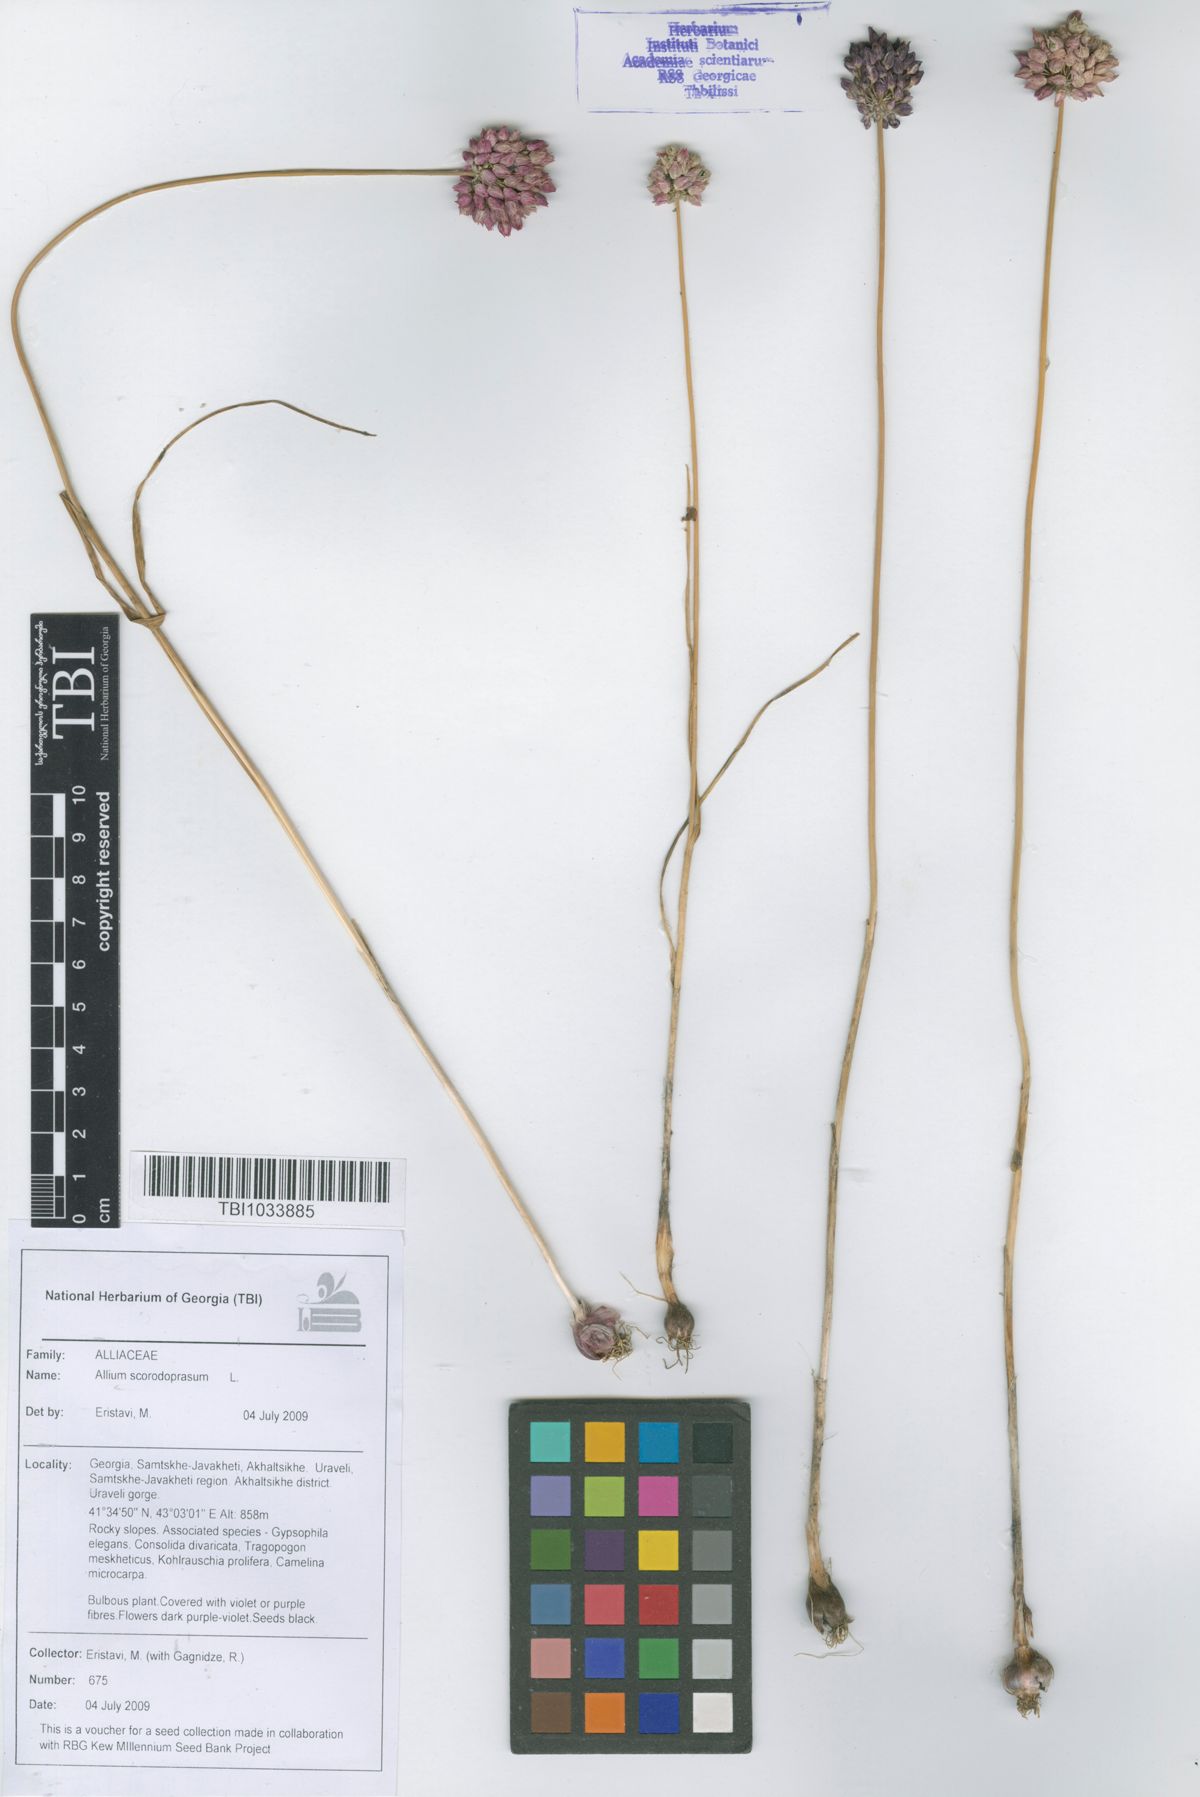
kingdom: Plantae
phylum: Tracheophyta
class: Liliopsida
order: Asparagales
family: Amaryllidaceae
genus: Allium
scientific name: Allium rotundum
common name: Sand leek
